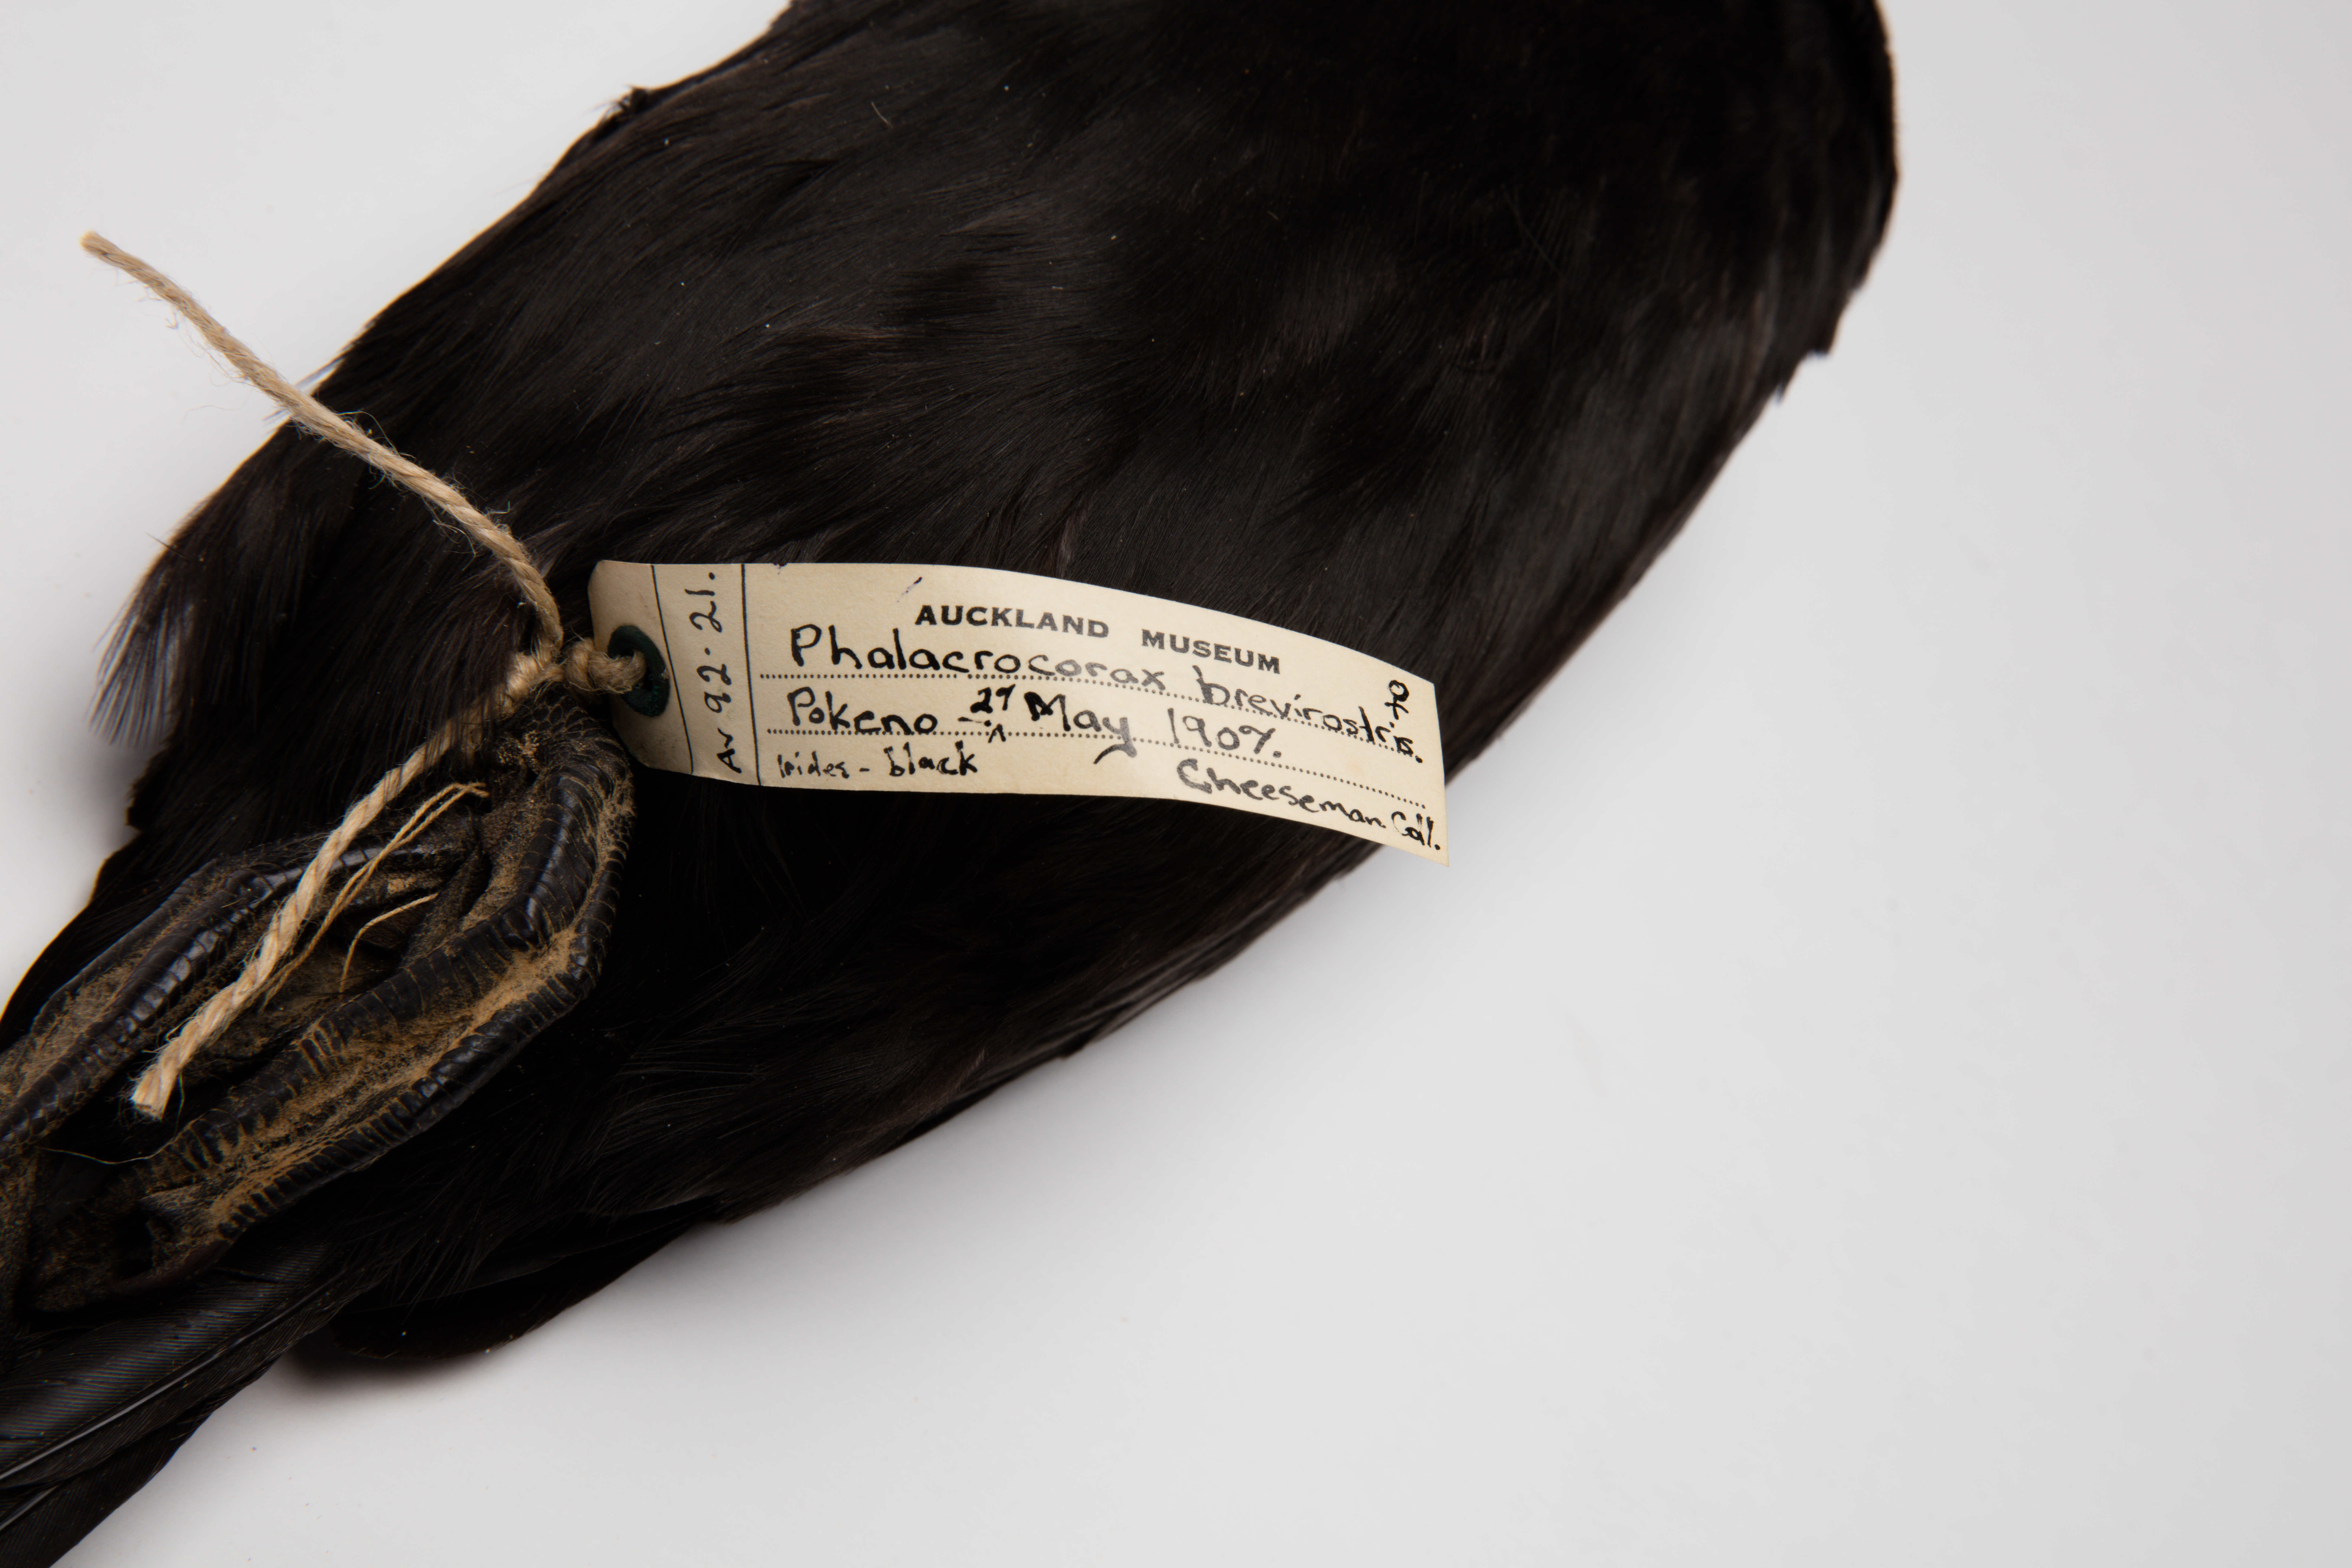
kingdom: Animalia
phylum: Chordata
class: Aves
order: Suliformes
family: Phalacrocoracidae
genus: Microcarbo
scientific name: Microcarbo melanoleucos
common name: Little pied cormorant
